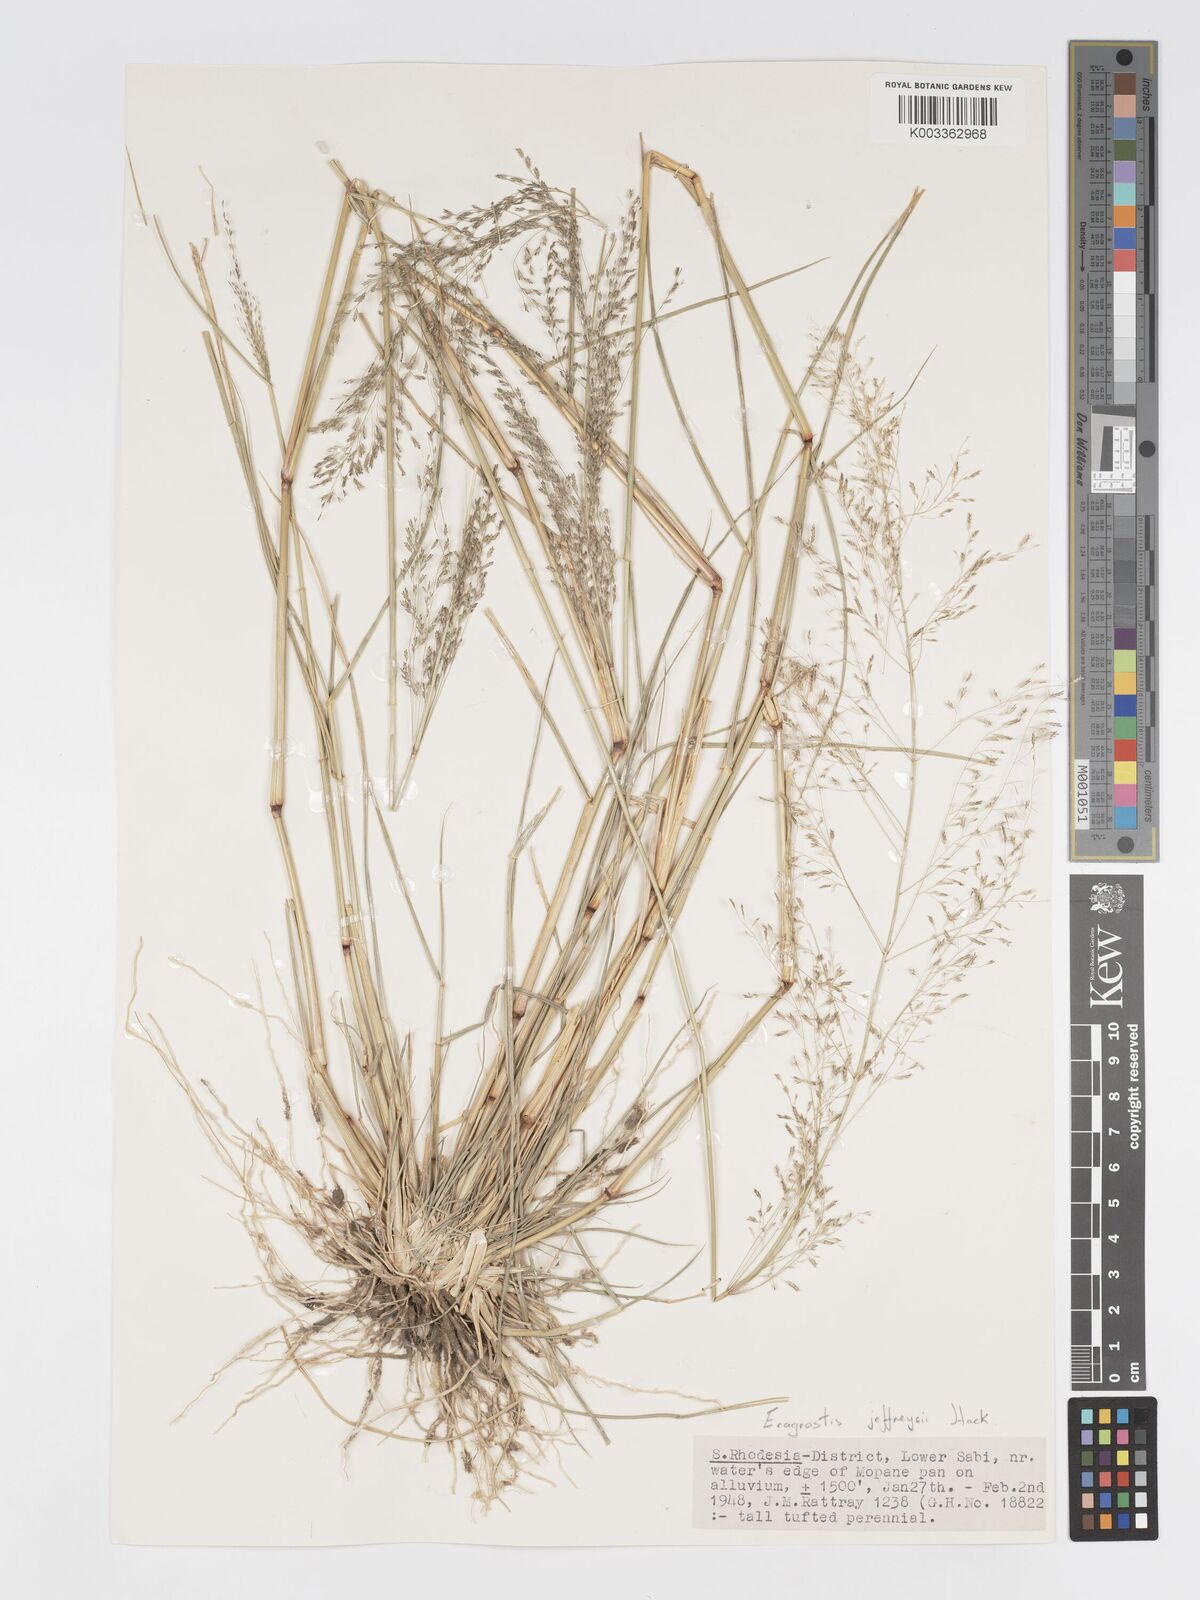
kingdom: Plantae
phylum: Tracheophyta
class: Liliopsida
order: Poales
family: Poaceae
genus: Eragrostis
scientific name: Eragrostis cylindriflora
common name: Cylinderflower lovegrass
